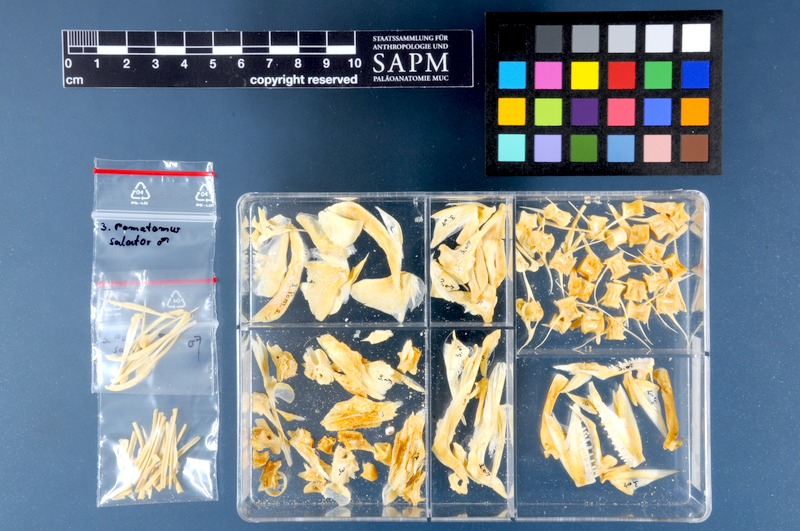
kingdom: Animalia
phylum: Chordata
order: Perciformes
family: Pomatomidae
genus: Pomatomus
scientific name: Pomatomus saltatrix
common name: Bluefish
